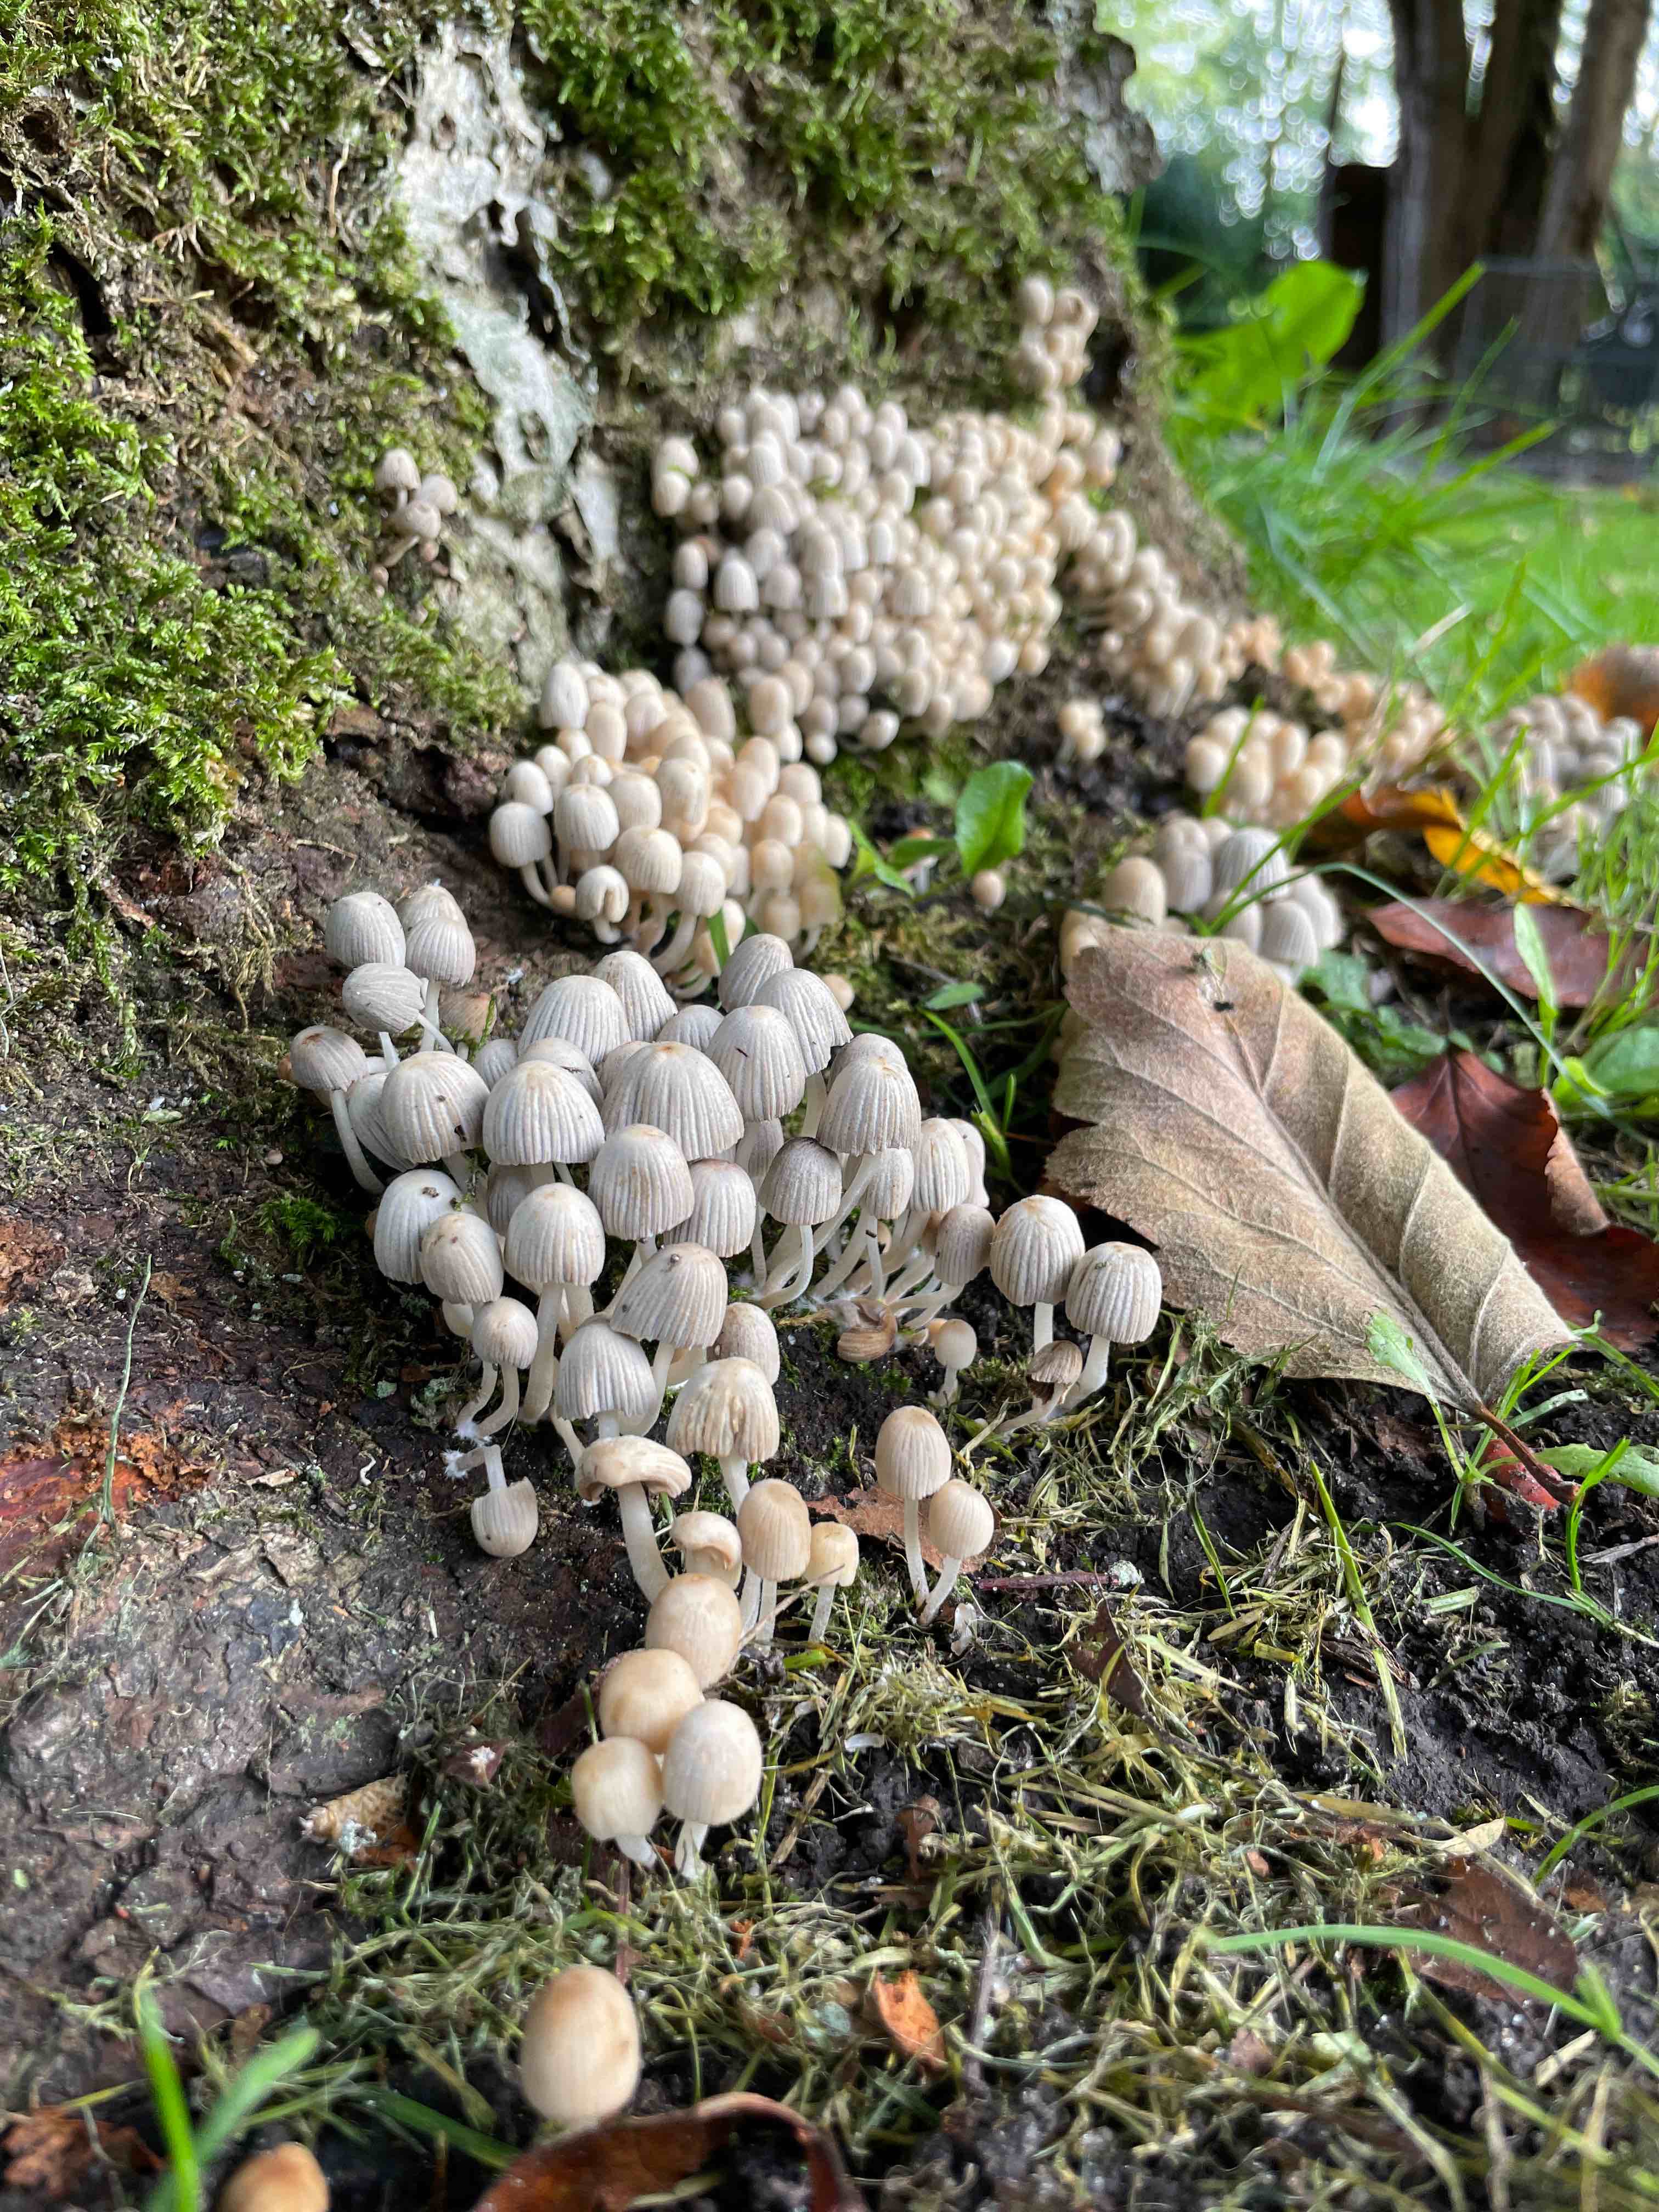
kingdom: Fungi
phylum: Basidiomycota
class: Agaricomycetes
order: Agaricales
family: Psathyrellaceae
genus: Coprinellus
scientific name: Coprinellus disseminatus
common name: bredsået blækhat
